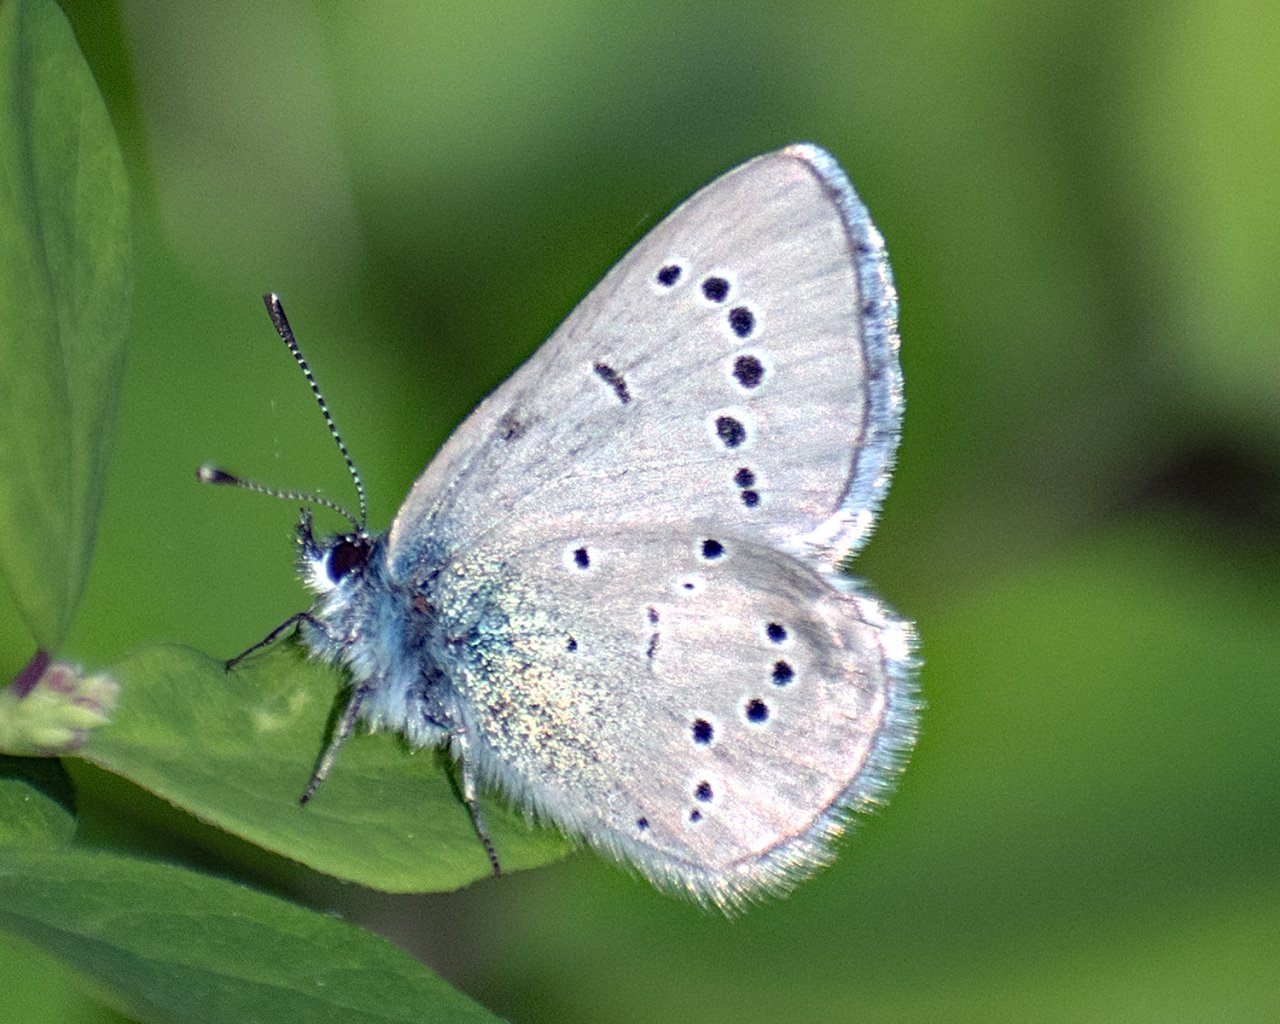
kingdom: Animalia
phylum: Arthropoda
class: Insecta
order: Lepidoptera
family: Lycaenidae
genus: Glaucopsyche
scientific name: Glaucopsyche lygdamus
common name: Silvery Blue
